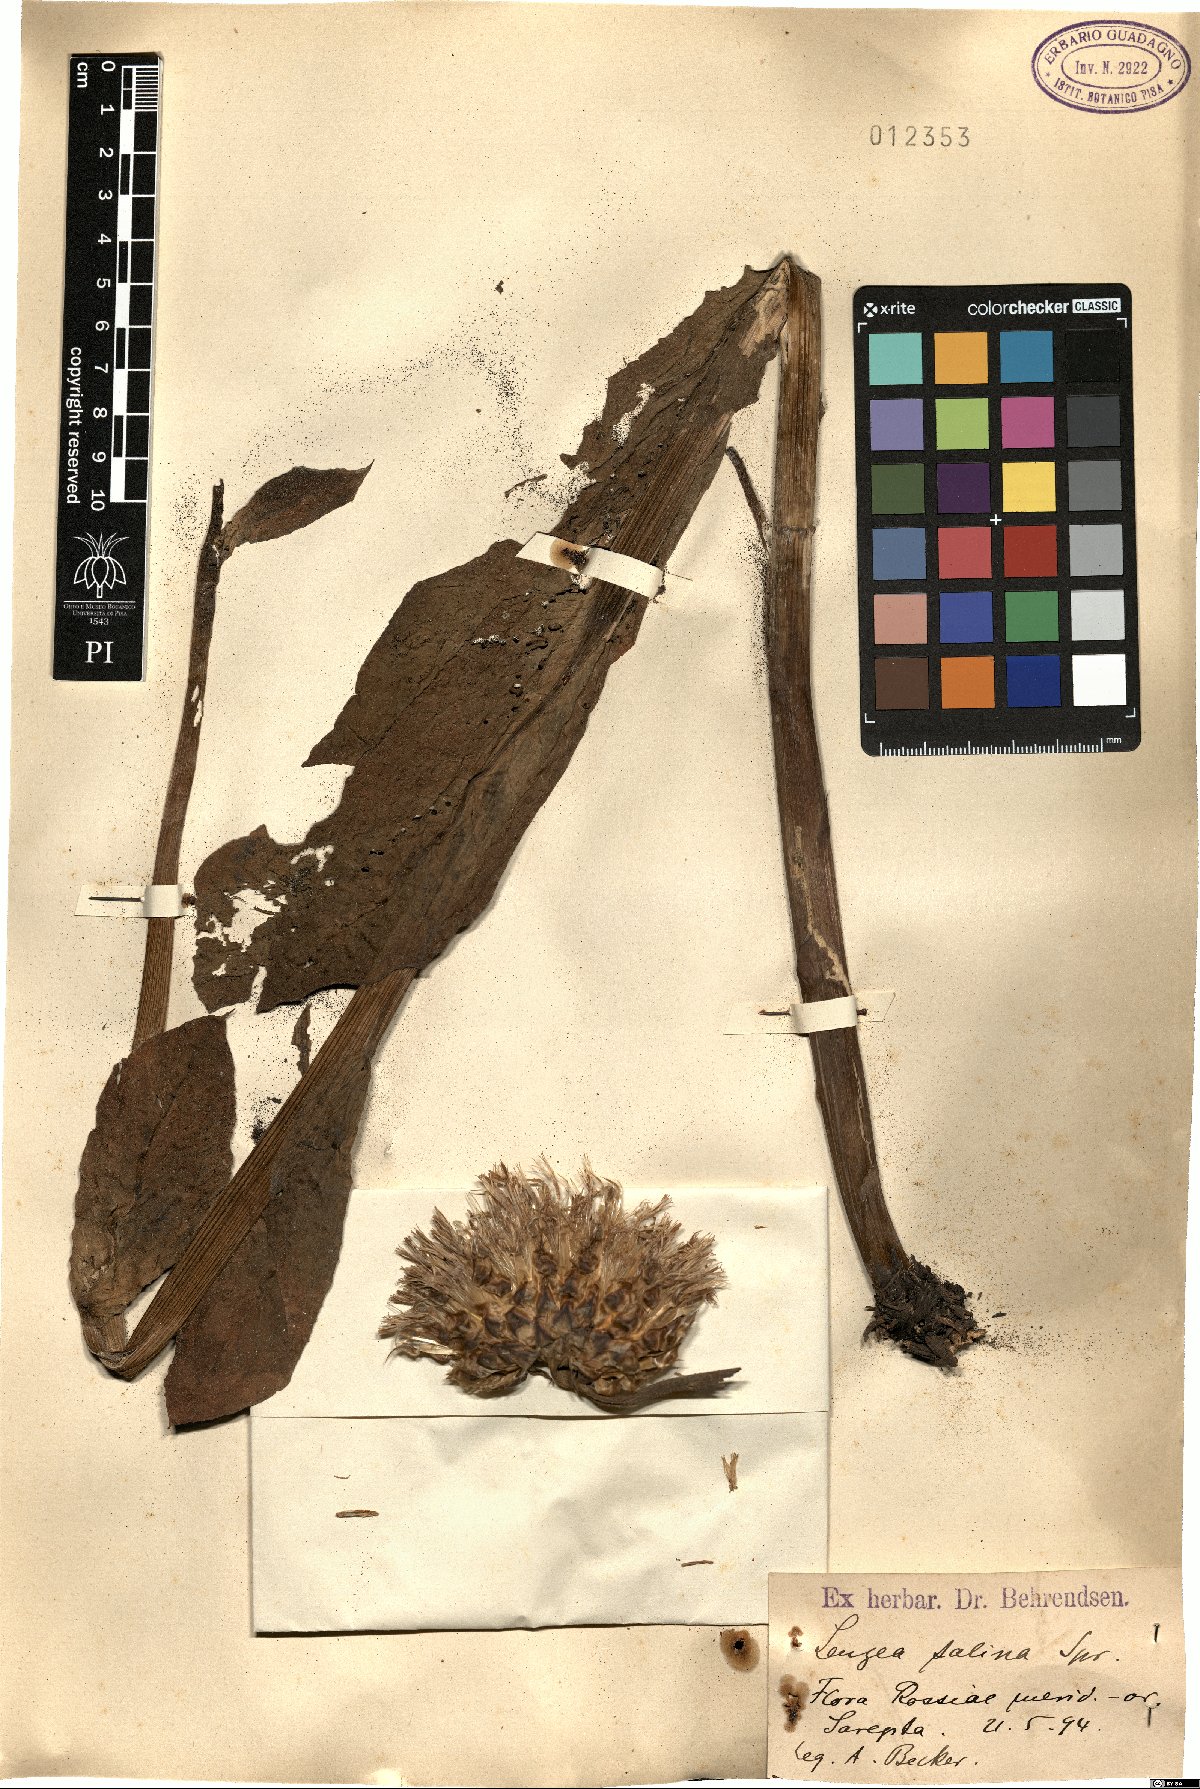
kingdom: Plantae
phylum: Tracheophyta
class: Magnoliopsida
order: Asterales
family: Asteraceae
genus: Klasea
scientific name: Klasea serratuloides
